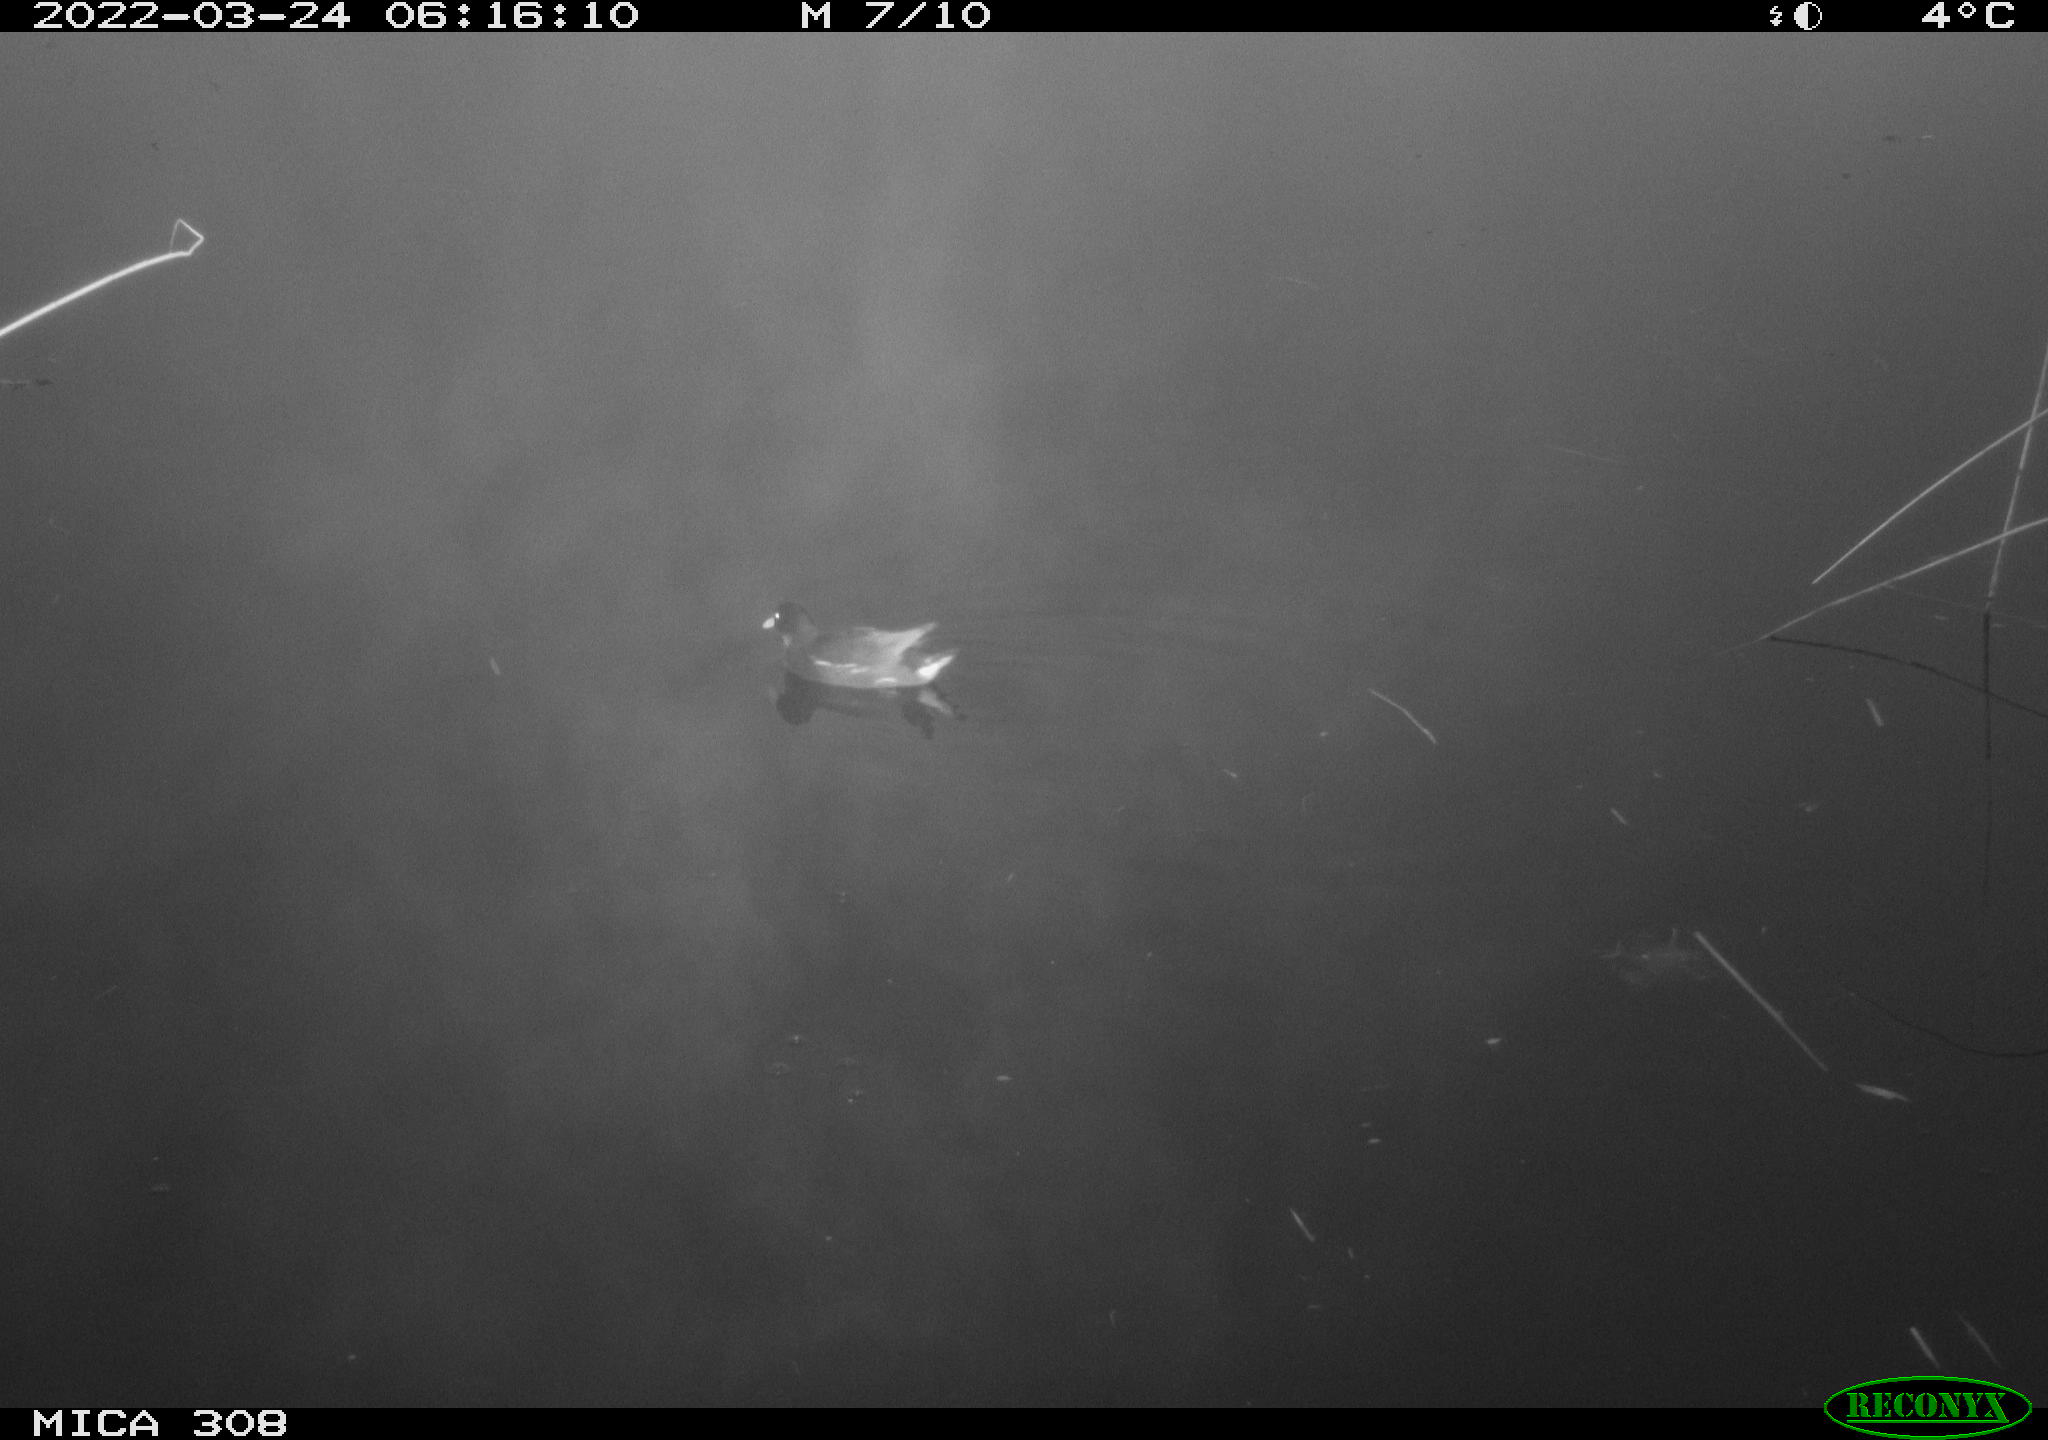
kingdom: Animalia
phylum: Chordata
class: Aves
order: Gruiformes
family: Rallidae
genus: Gallinula
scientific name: Gallinula chloropus
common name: Common moorhen
